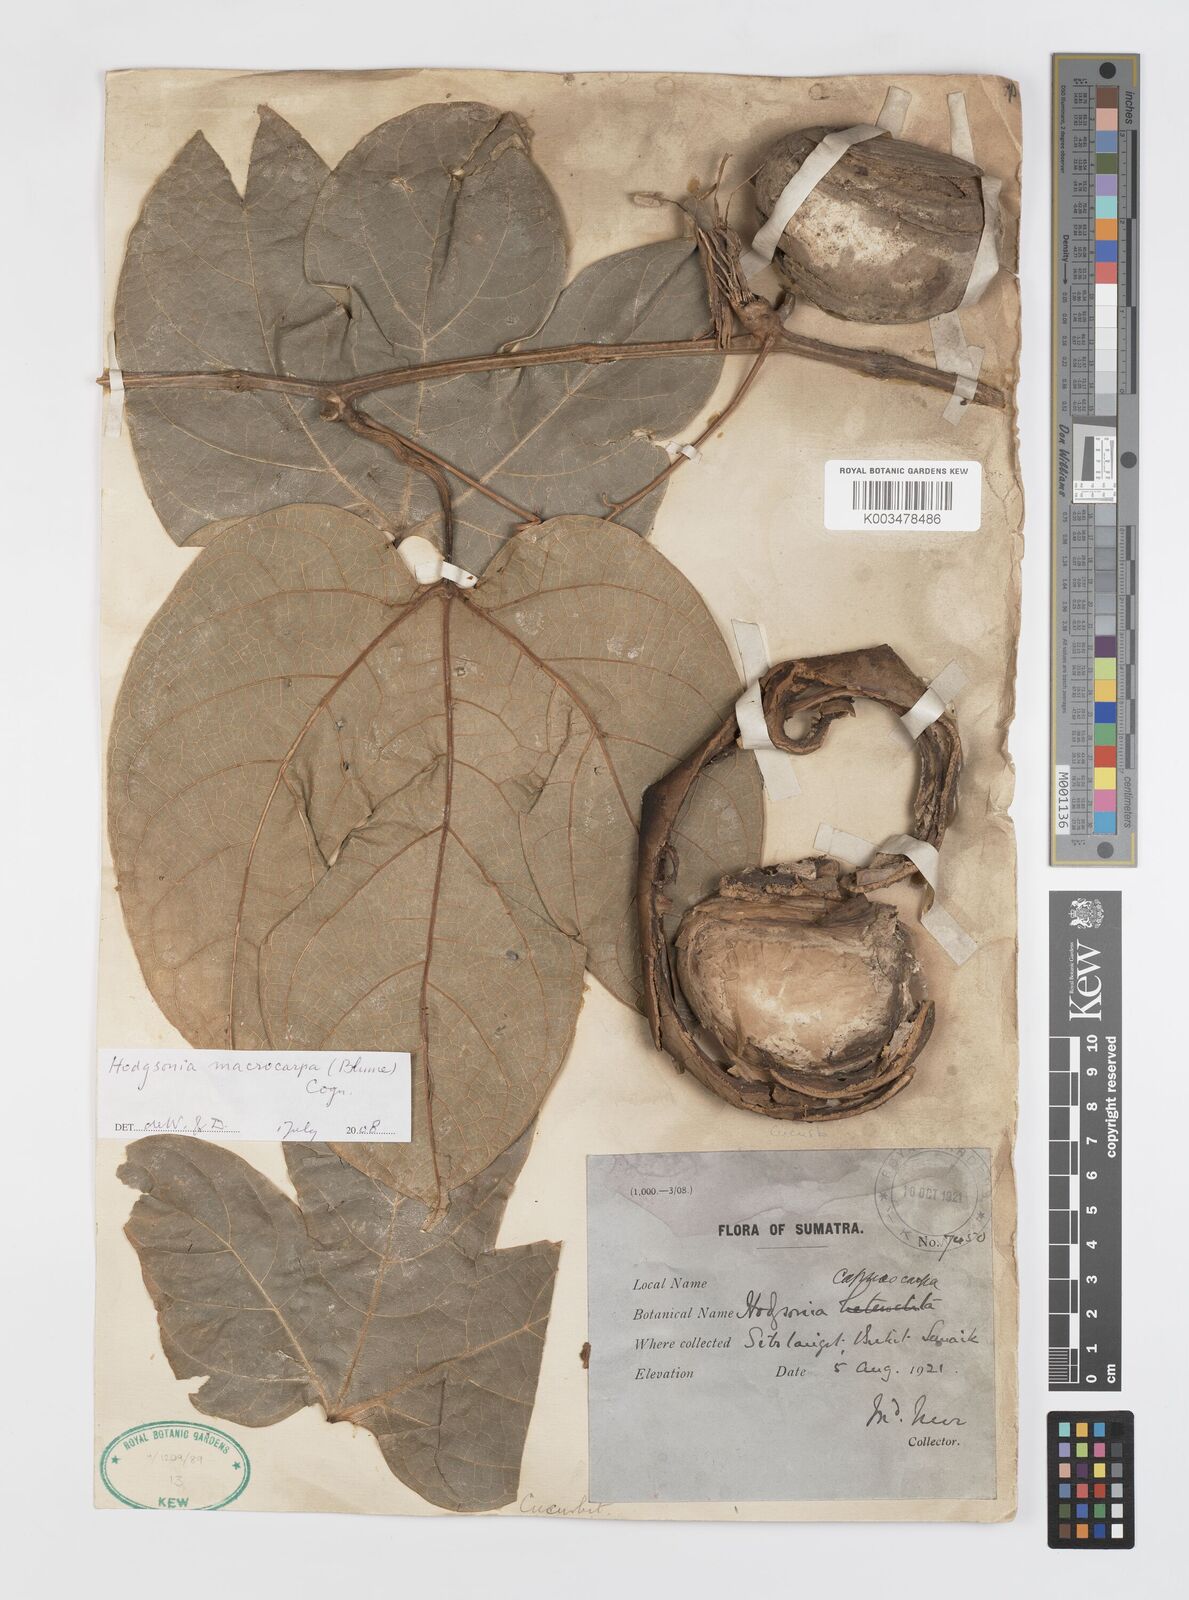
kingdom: Plantae
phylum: Tracheophyta
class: Magnoliopsida
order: Cucurbitales
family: Cucurbitaceae
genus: Hodgsonia
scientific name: Hodgsonia macrocarpa
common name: Chinese lardfruit
